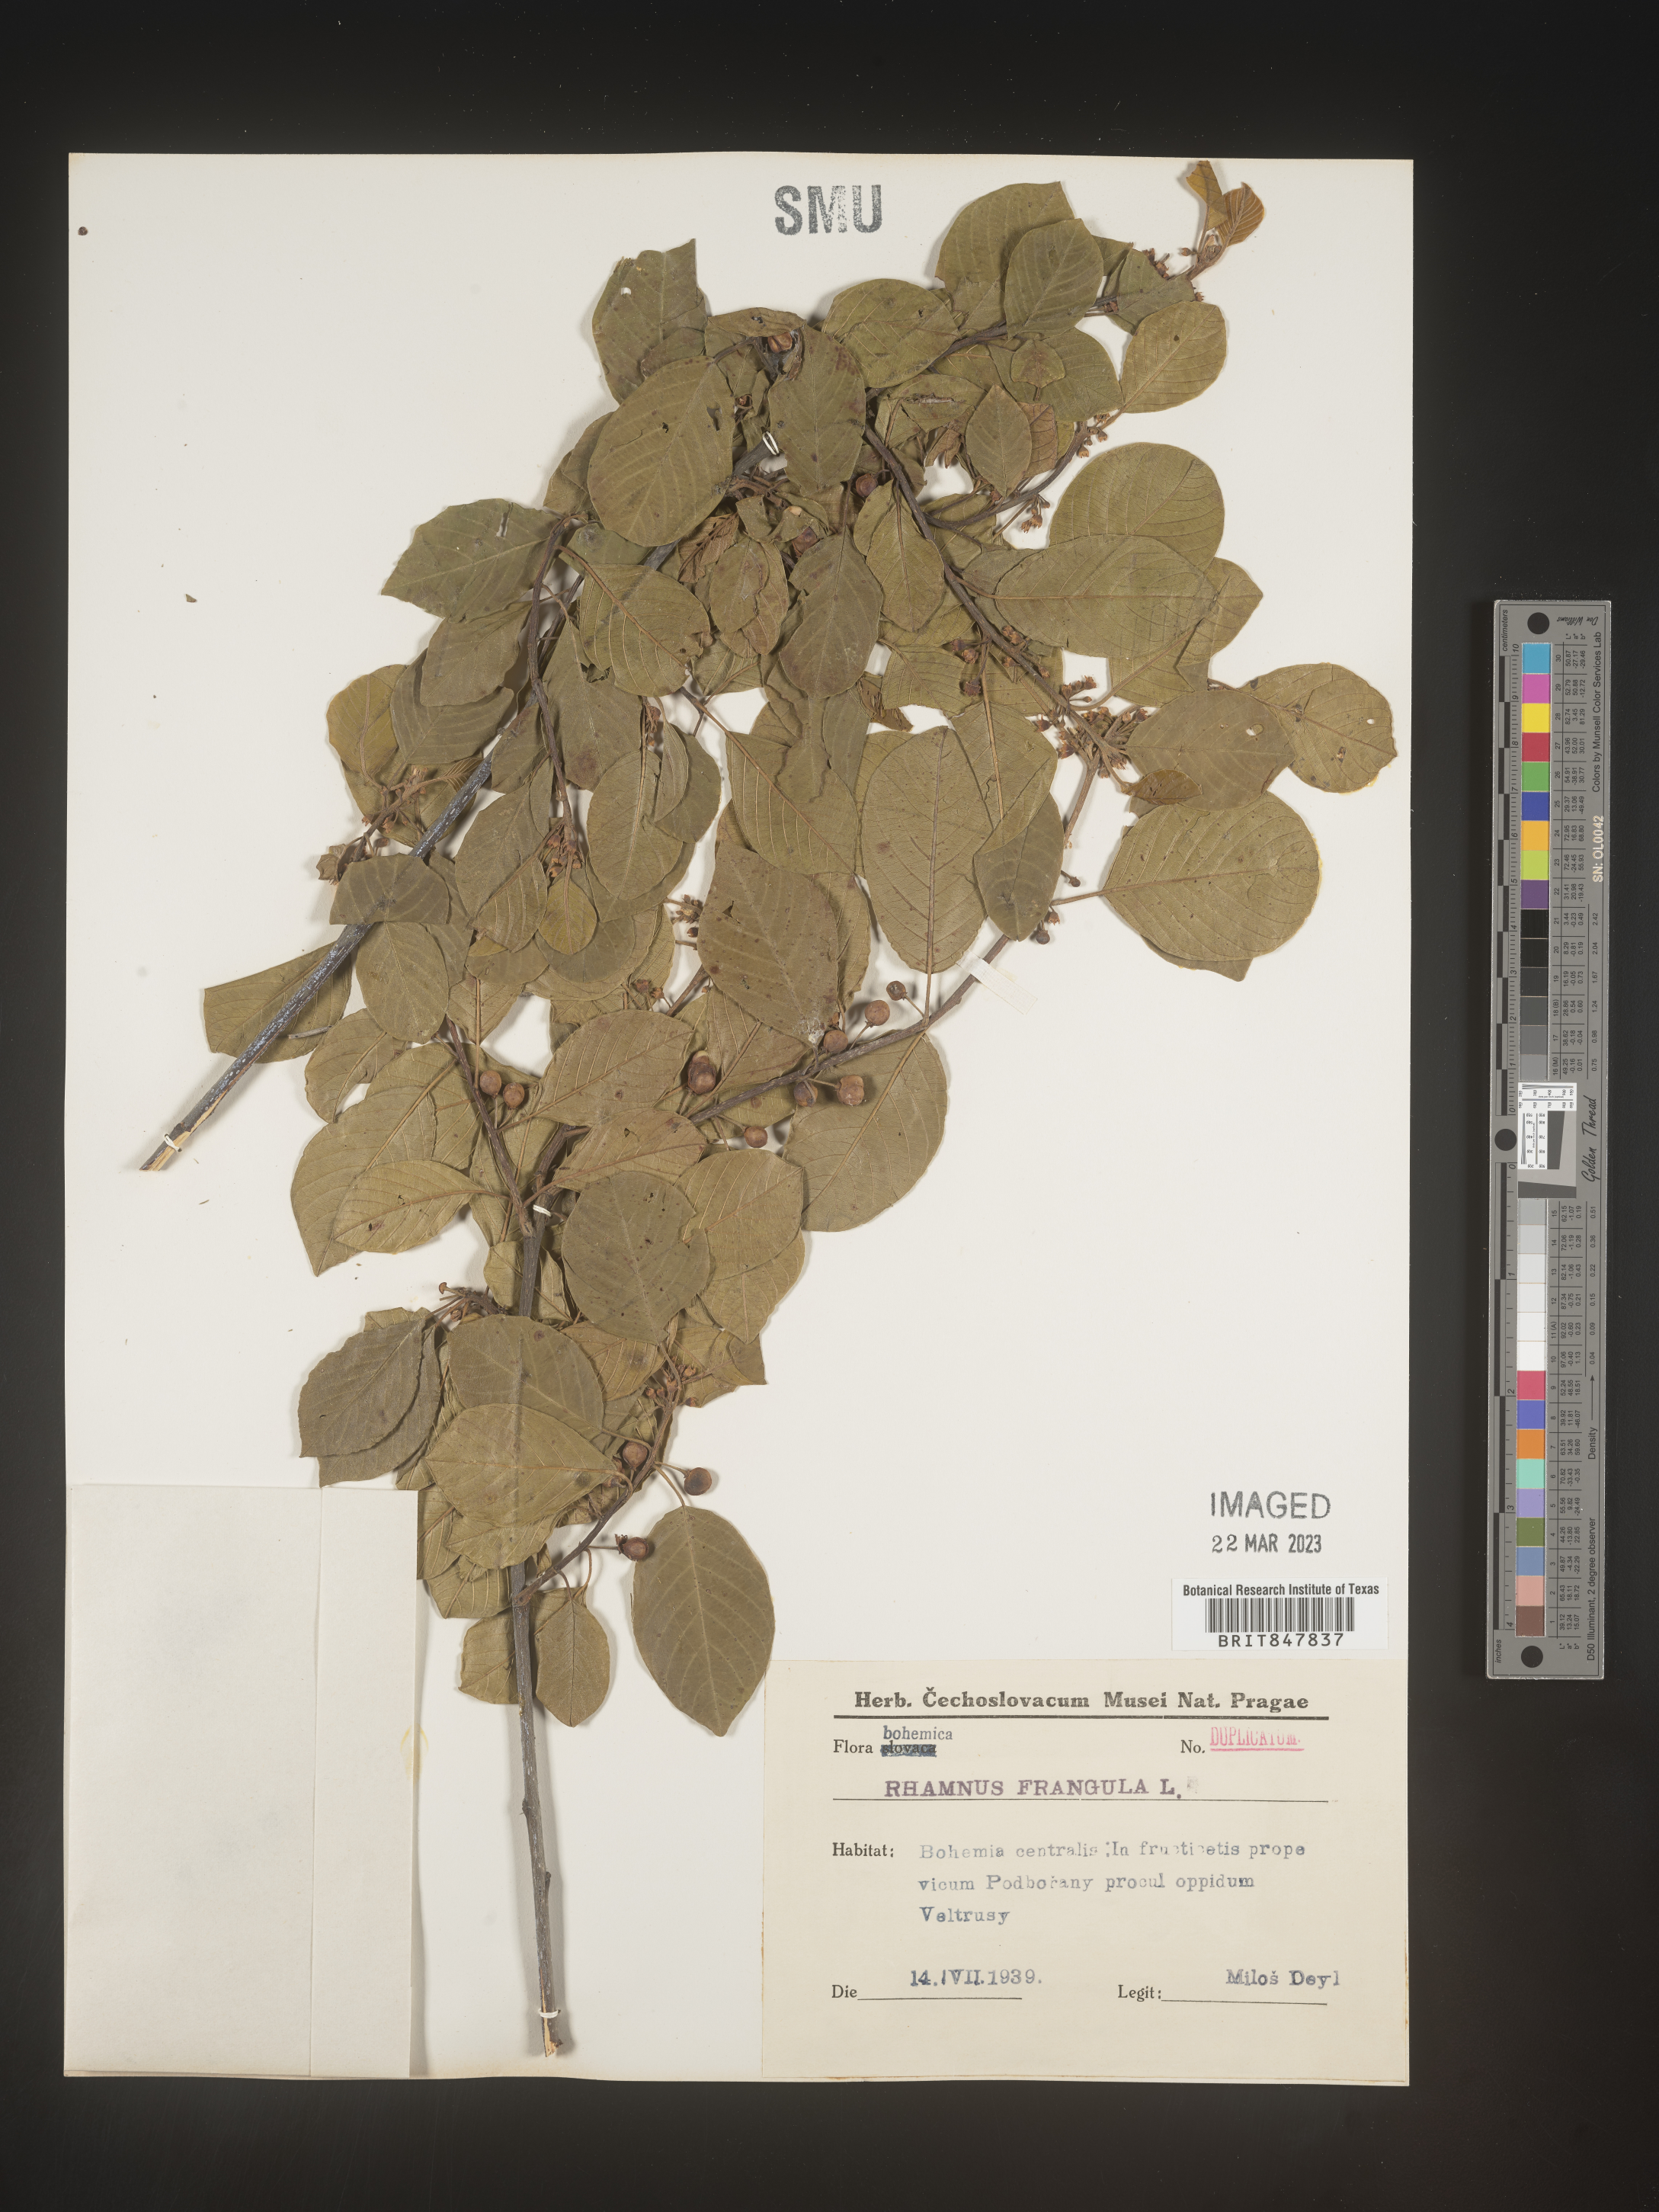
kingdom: Plantae
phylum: Tracheophyta
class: Magnoliopsida
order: Rosales
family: Rhamnaceae
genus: Rhamnus
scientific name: Rhamnus
